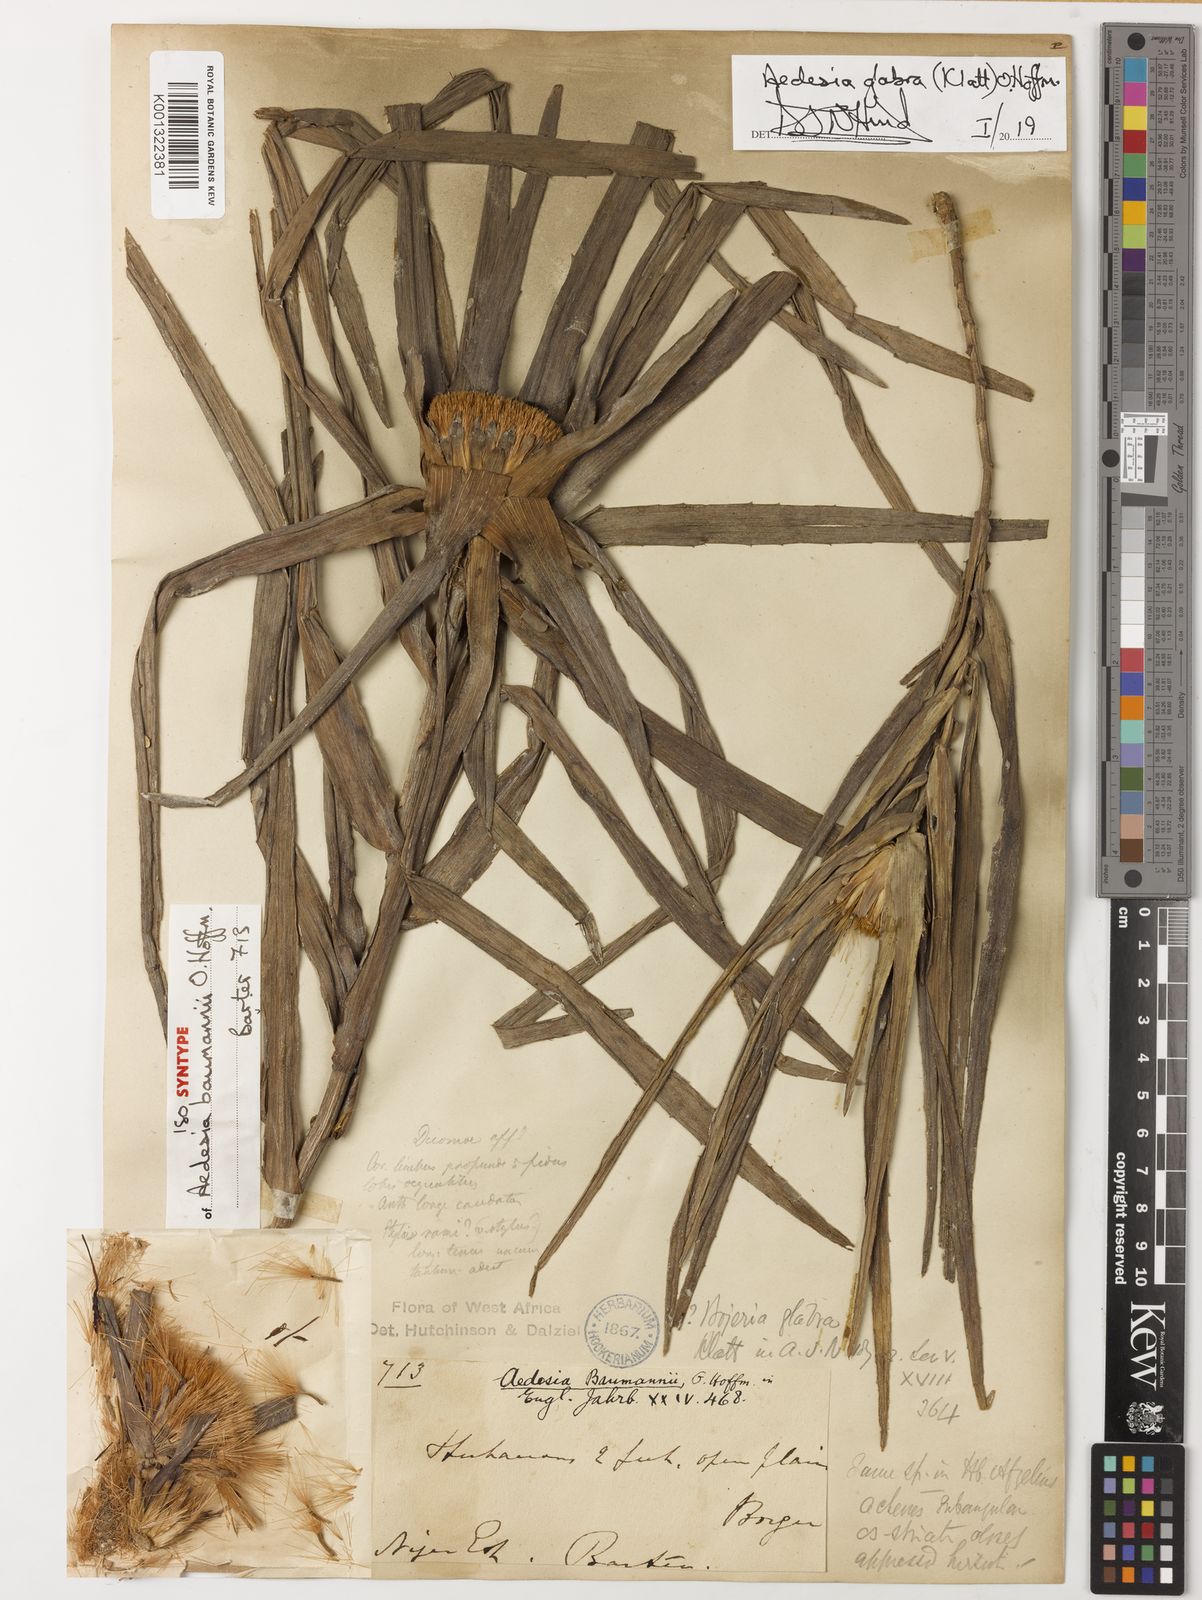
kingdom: Plantae
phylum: Tracheophyta
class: Magnoliopsida
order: Asterales
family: Asteraceae
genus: Aedesia
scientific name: Aedesia glabra
